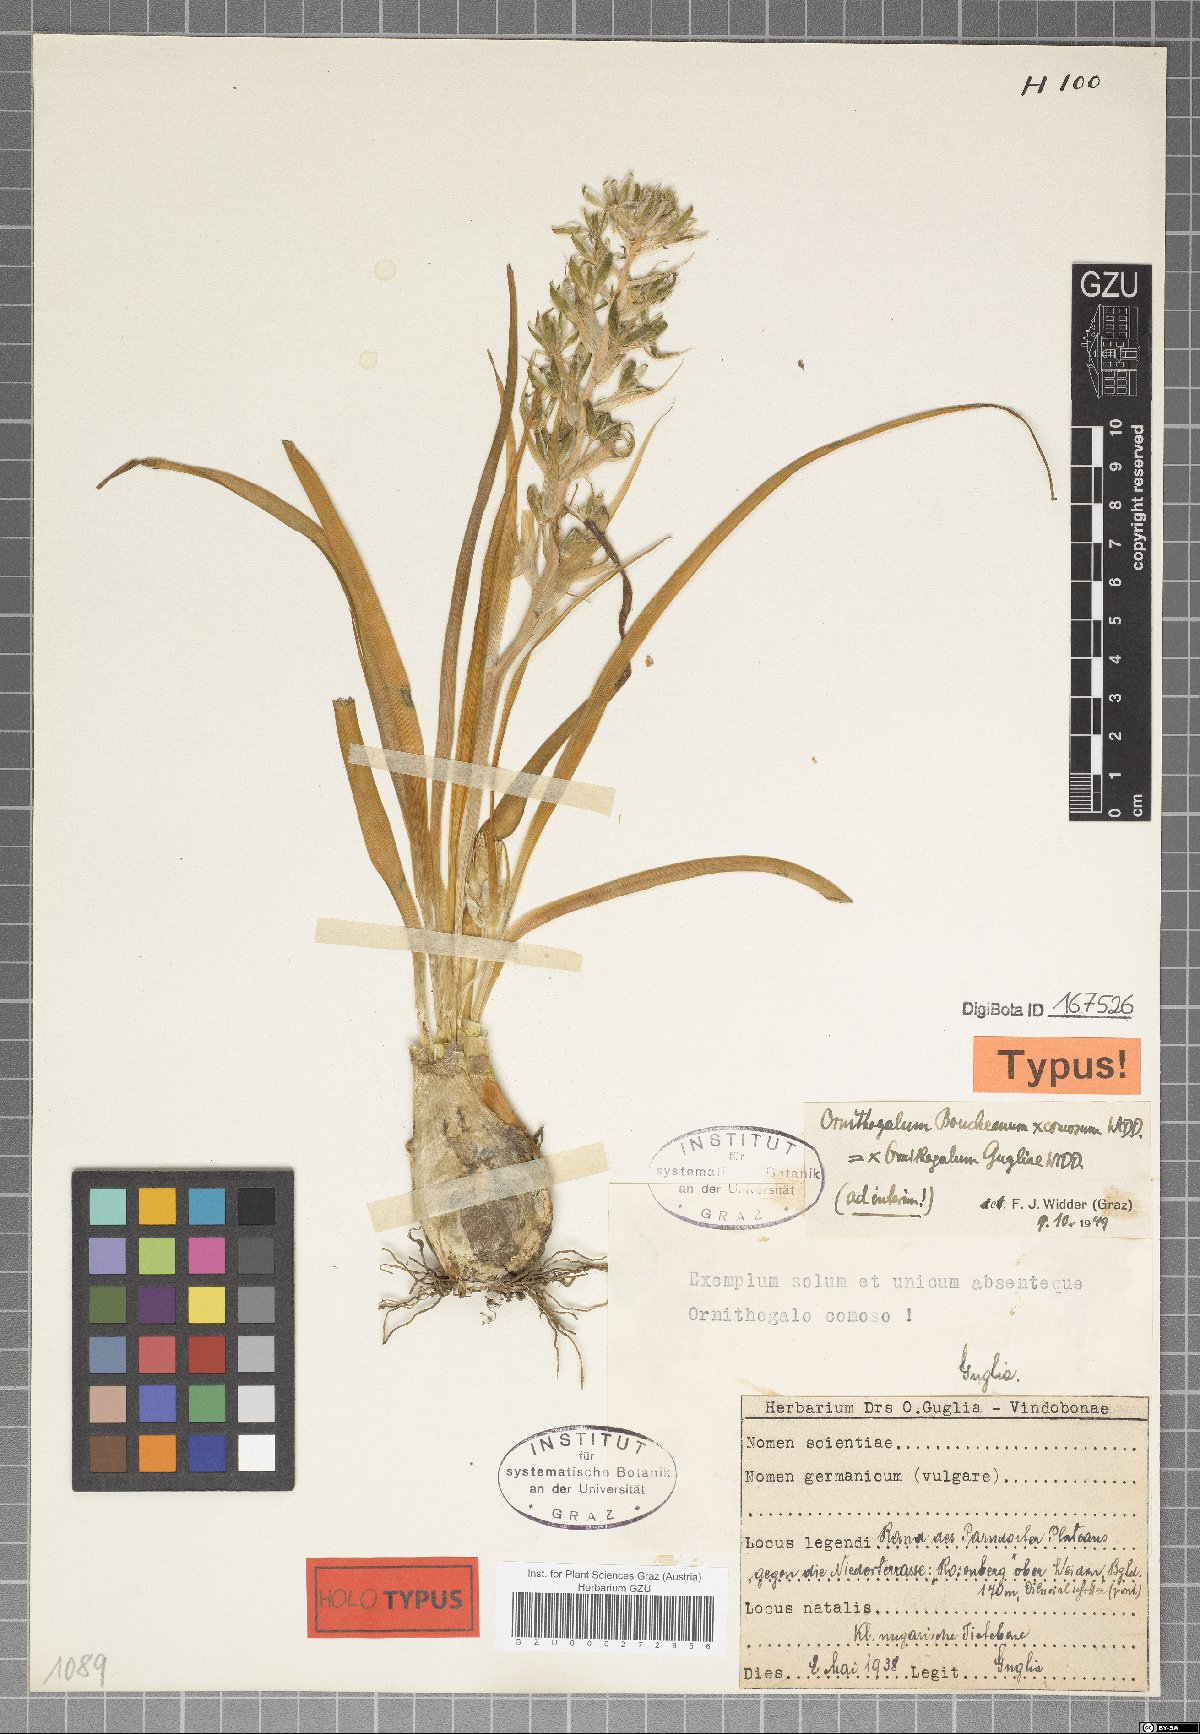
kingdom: Plantae
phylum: Tracheophyta
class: Liliopsida
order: Asparagales
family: Hyacinthaceae
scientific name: Hyacinthaceae
